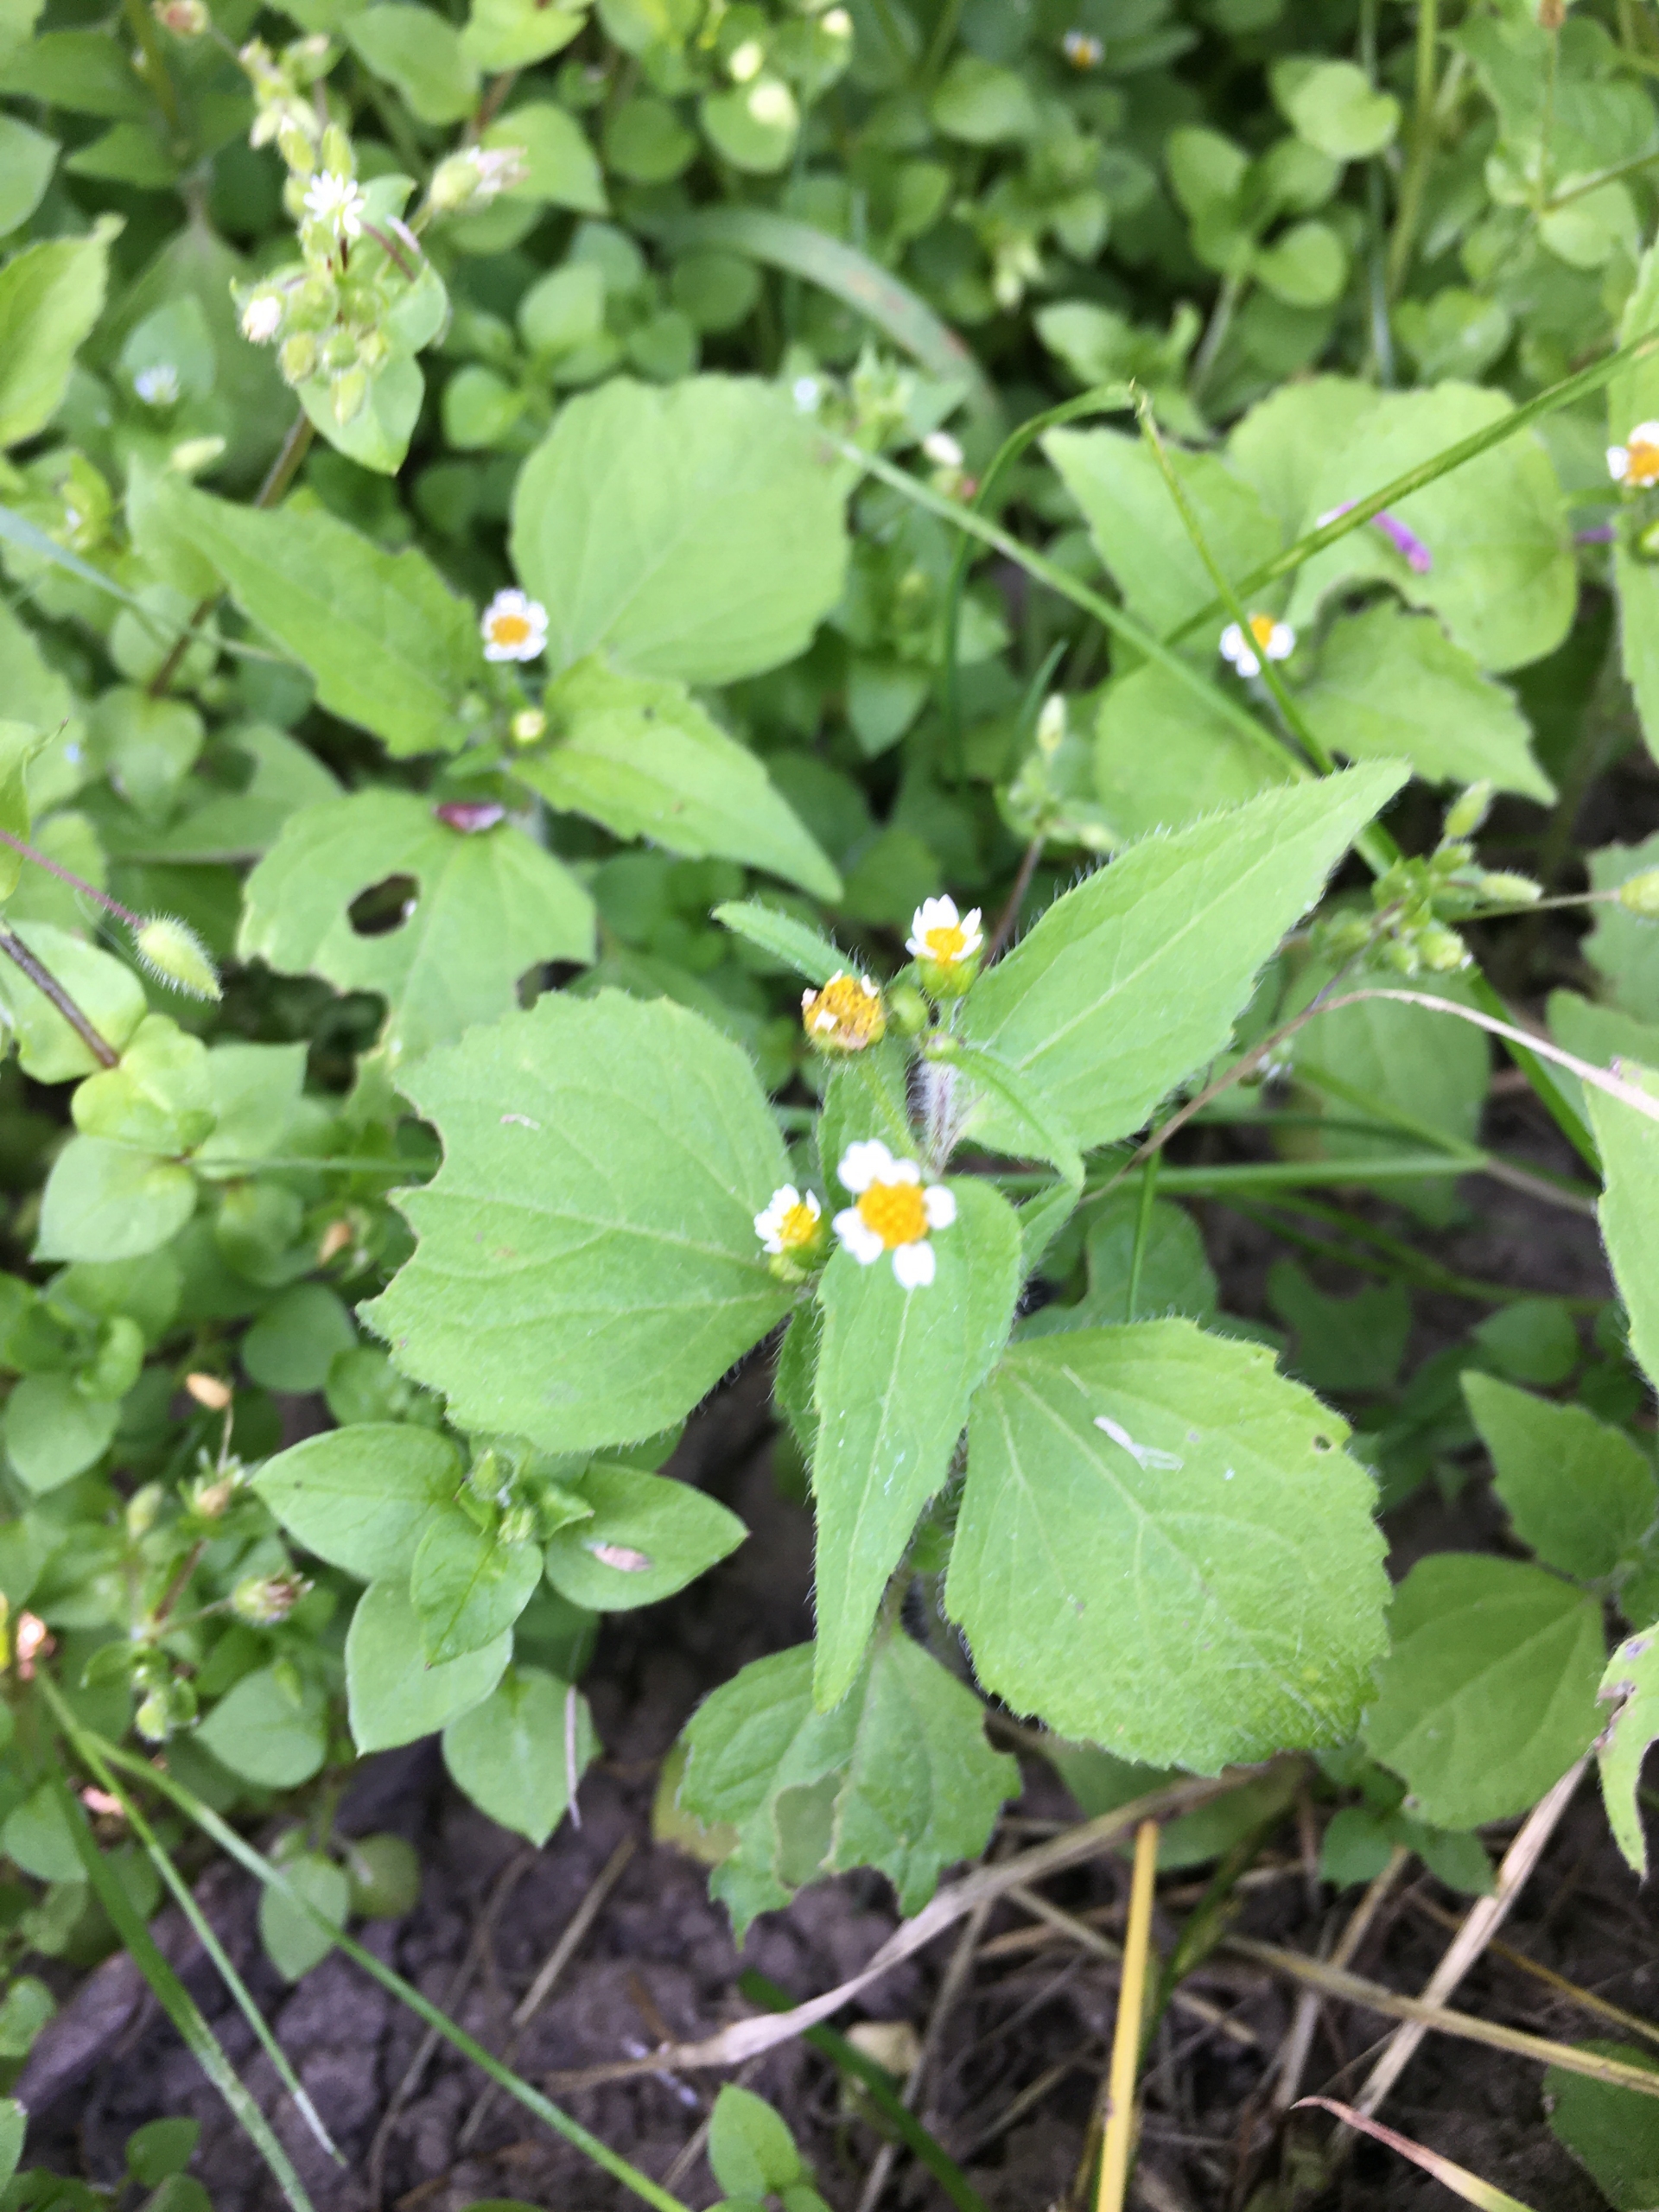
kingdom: Plantae
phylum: Tracheophyta
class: Magnoliopsida
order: Asterales
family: Asteraceae
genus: Galinsoga
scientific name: Galinsoga quadriradiata
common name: Kirtel-kortstråle
